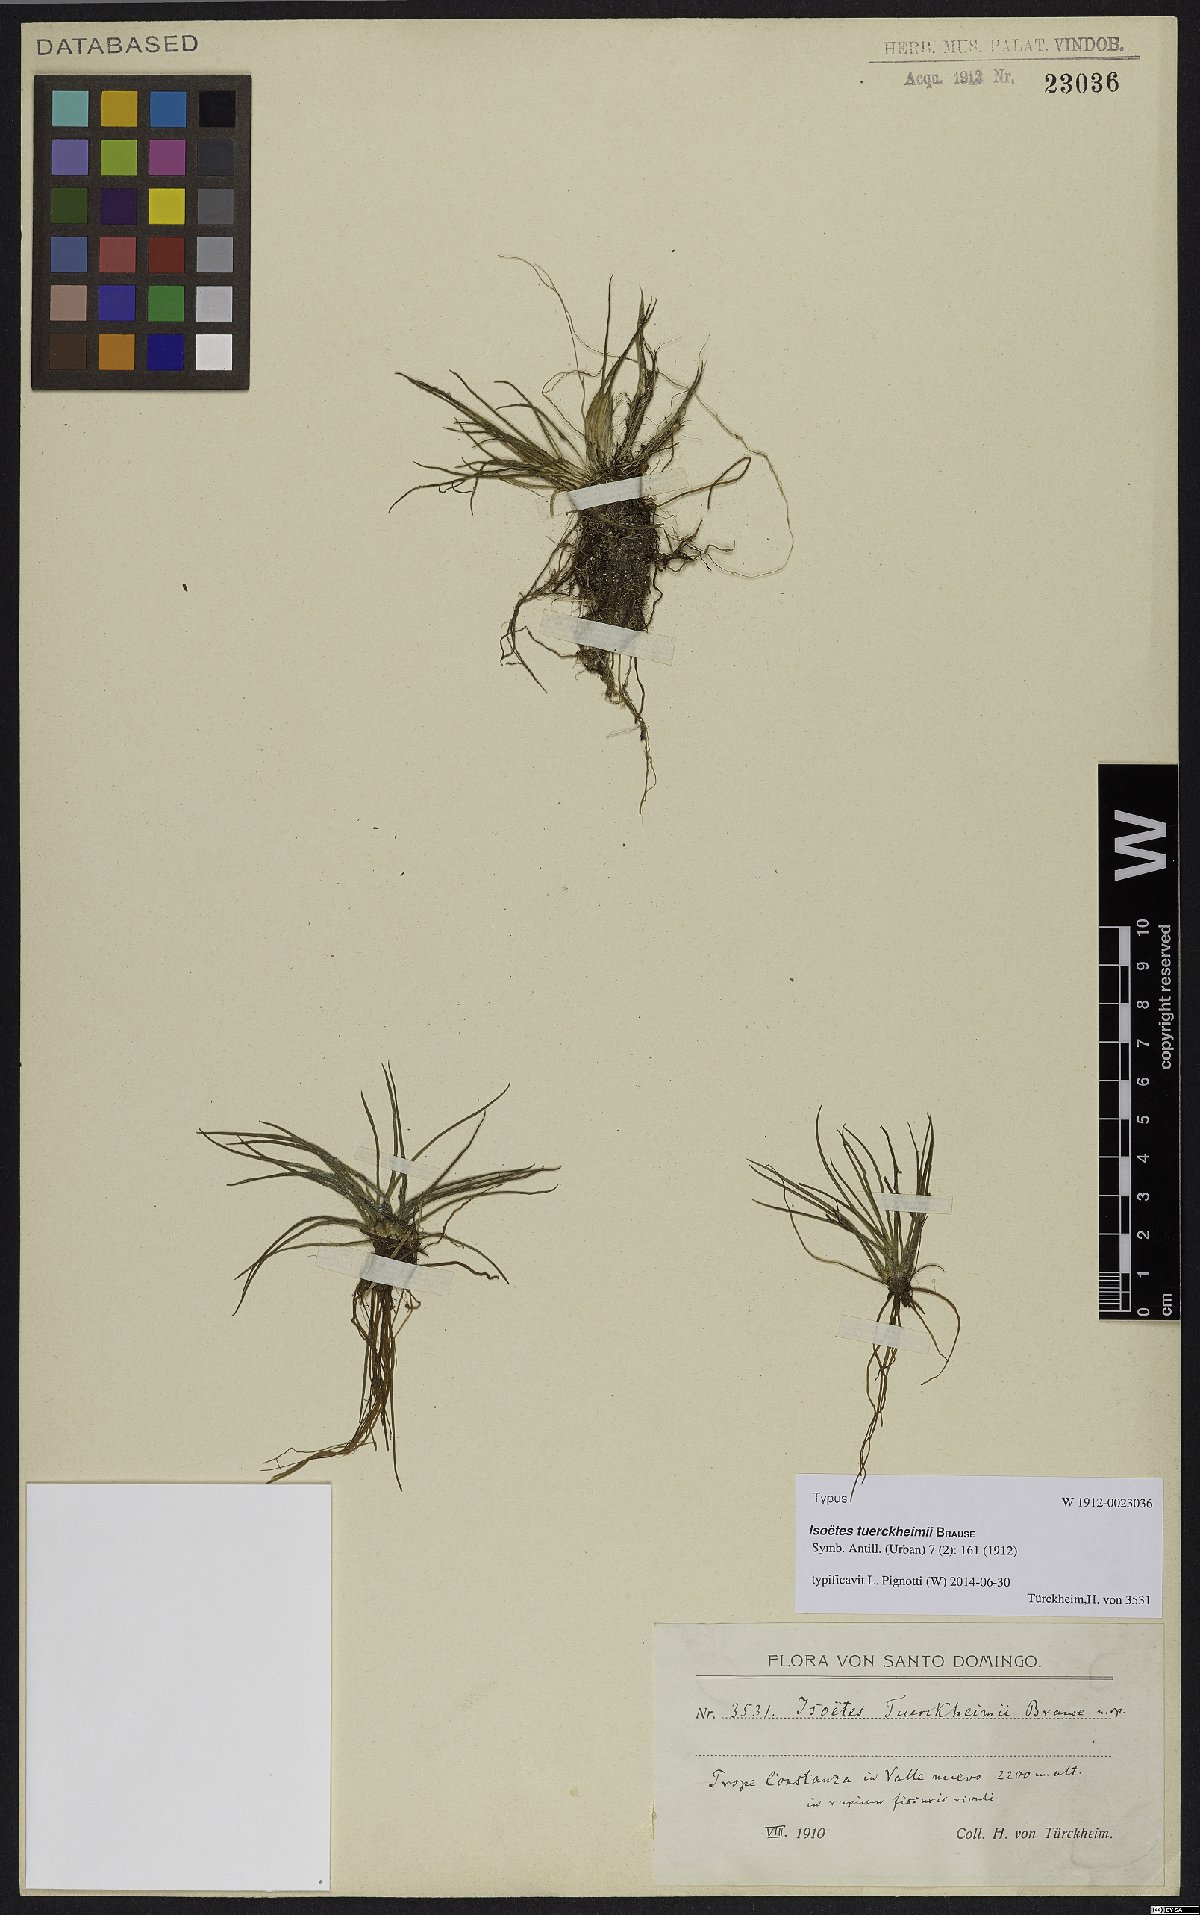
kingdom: Plantae
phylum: Tracheophyta
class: Lycopodiopsida
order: Isoetales
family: Isoetaceae
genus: Isoetes
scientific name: Isoetes tuerckheimii
